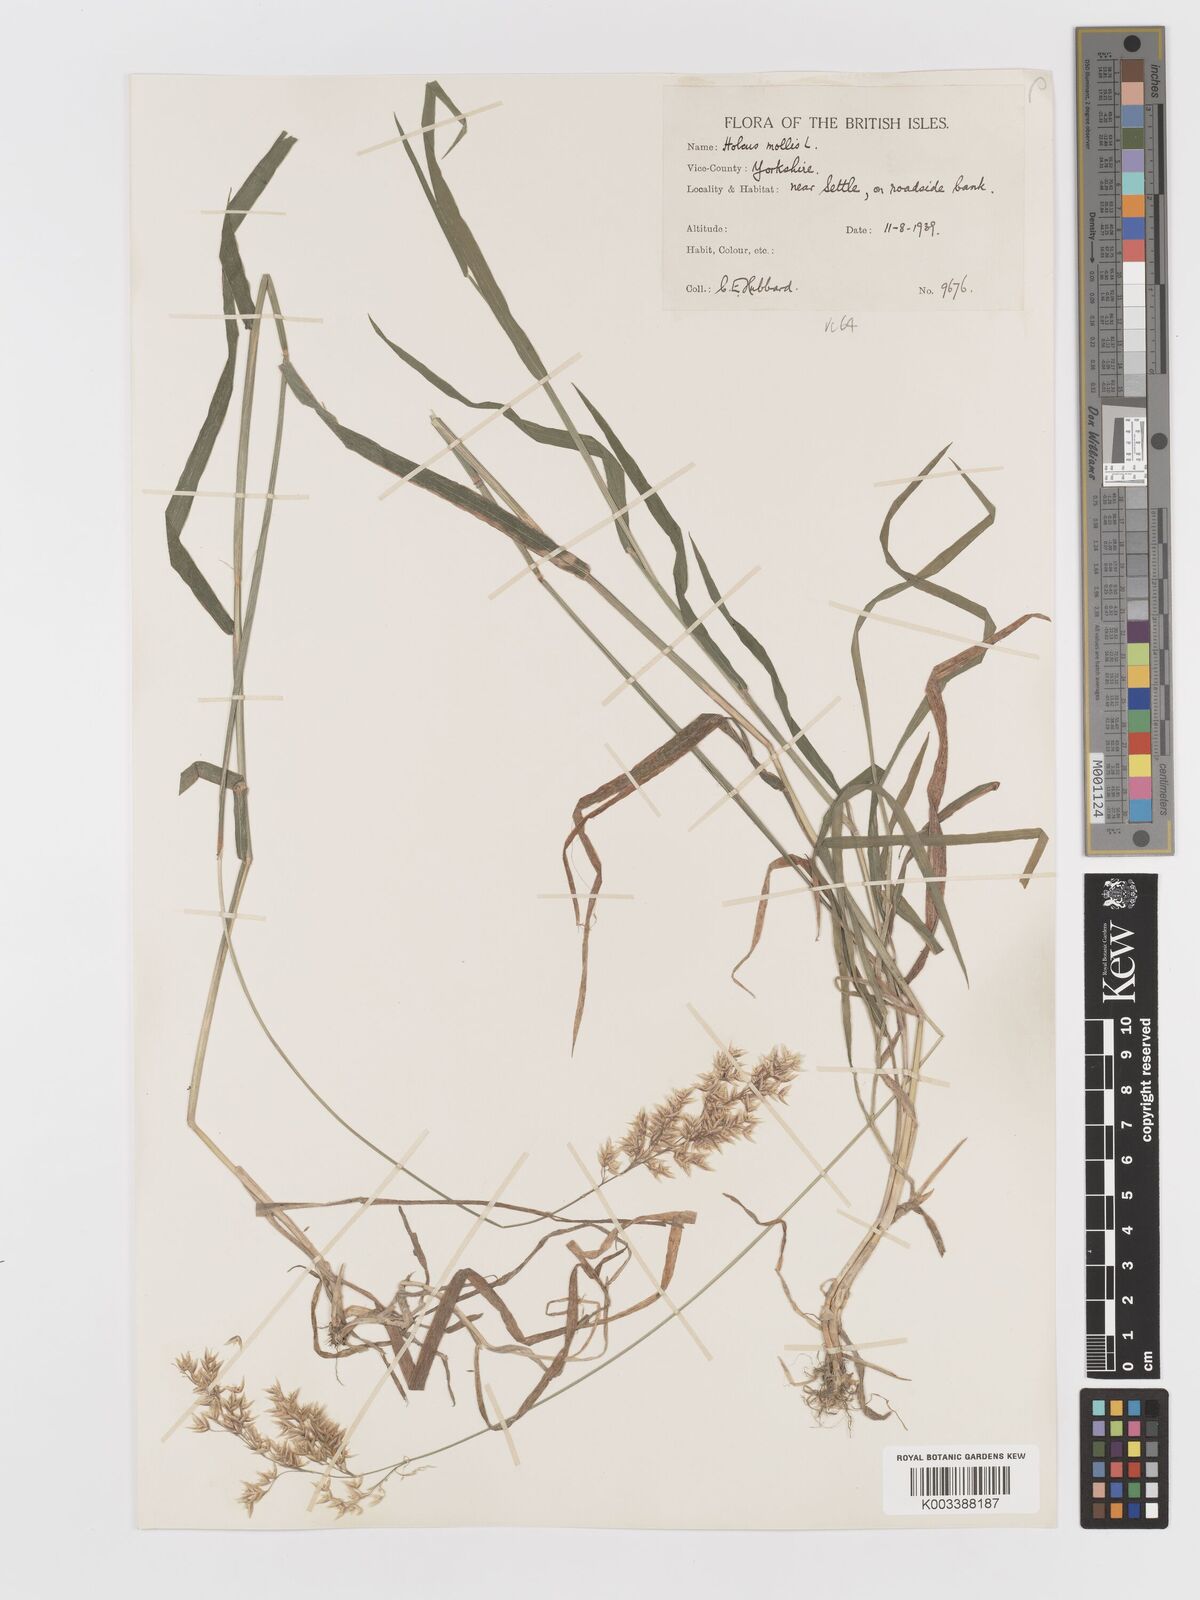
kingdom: Plantae
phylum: Tracheophyta
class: Liliopsida
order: Poales
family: Poaceae
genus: Holcus
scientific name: Holcus mollis
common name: Creeping velvetgrass
